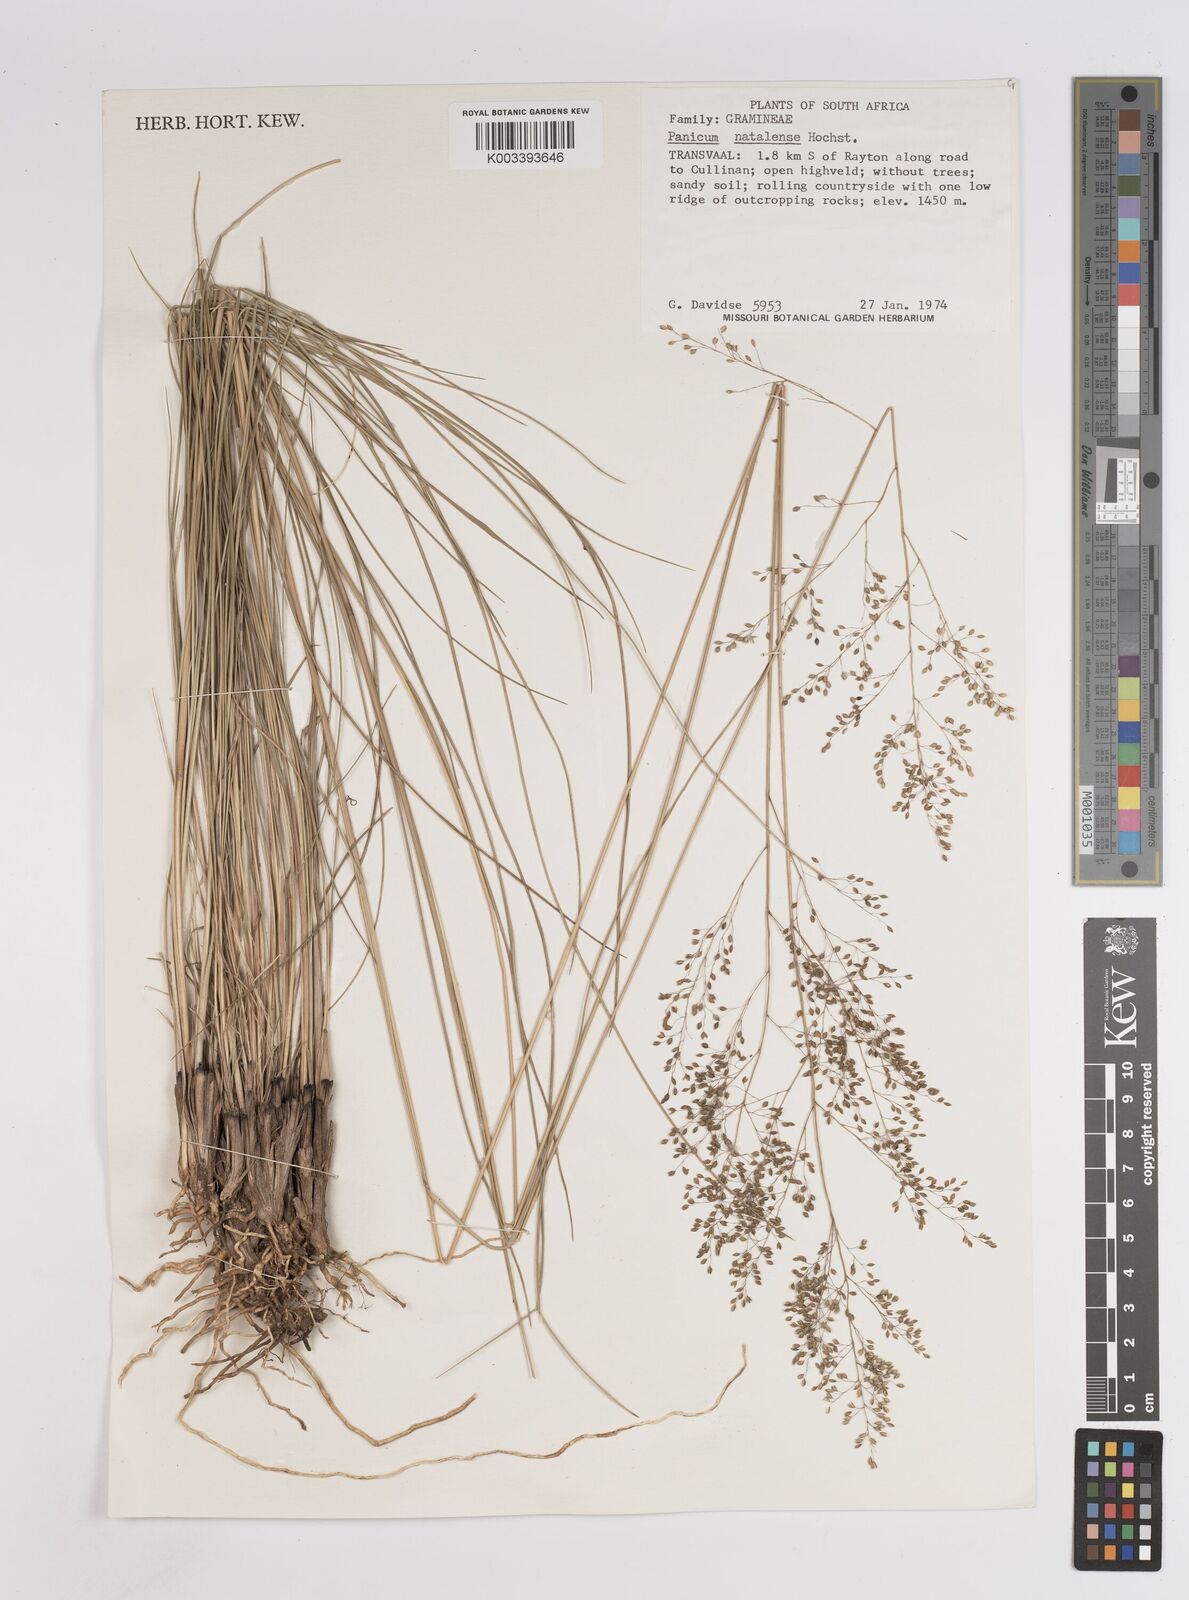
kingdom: Plantae
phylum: Tracheophyta
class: Liliopsida
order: Poales
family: Poaceae
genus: Trichanthecium
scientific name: Trichanthecium natalense
